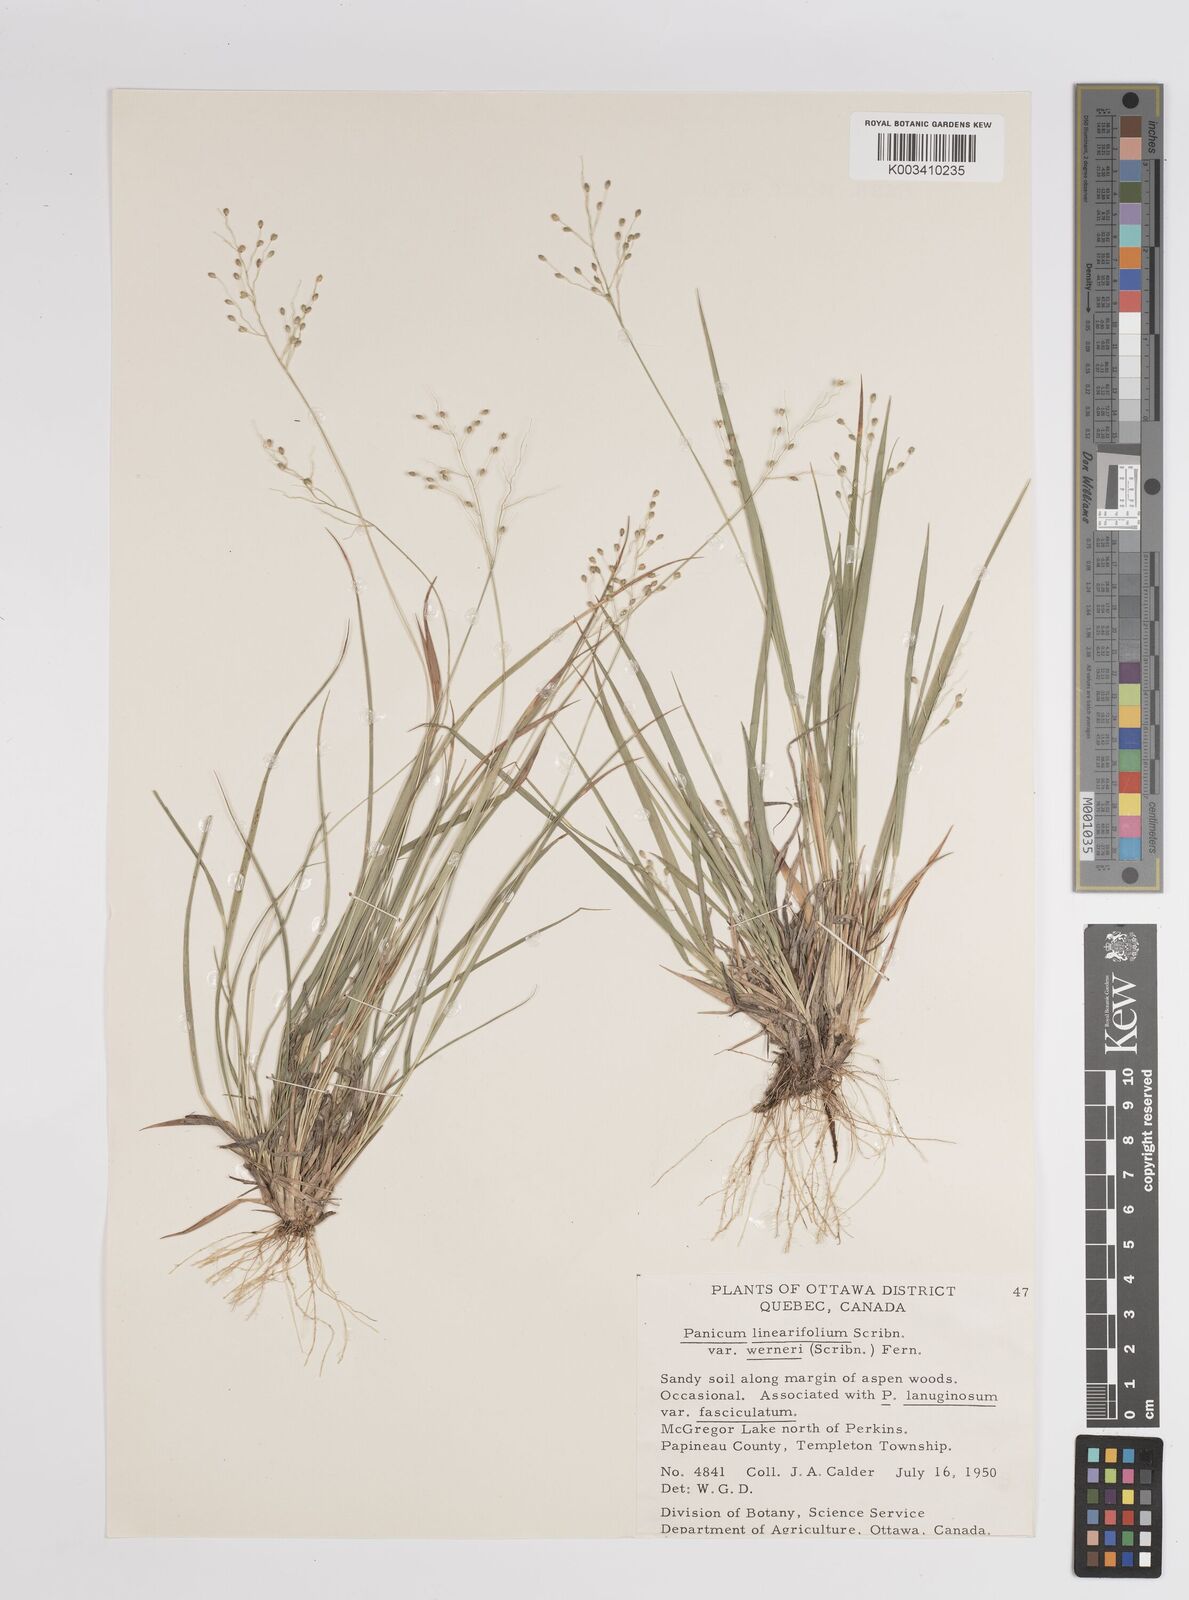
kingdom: Plantae
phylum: Tracheophyta
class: Liliopsida
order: Poales
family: Poaceae
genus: Dichanthelium
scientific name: Dichanthelium linearifolium
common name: Linear-leaved panicgrass
